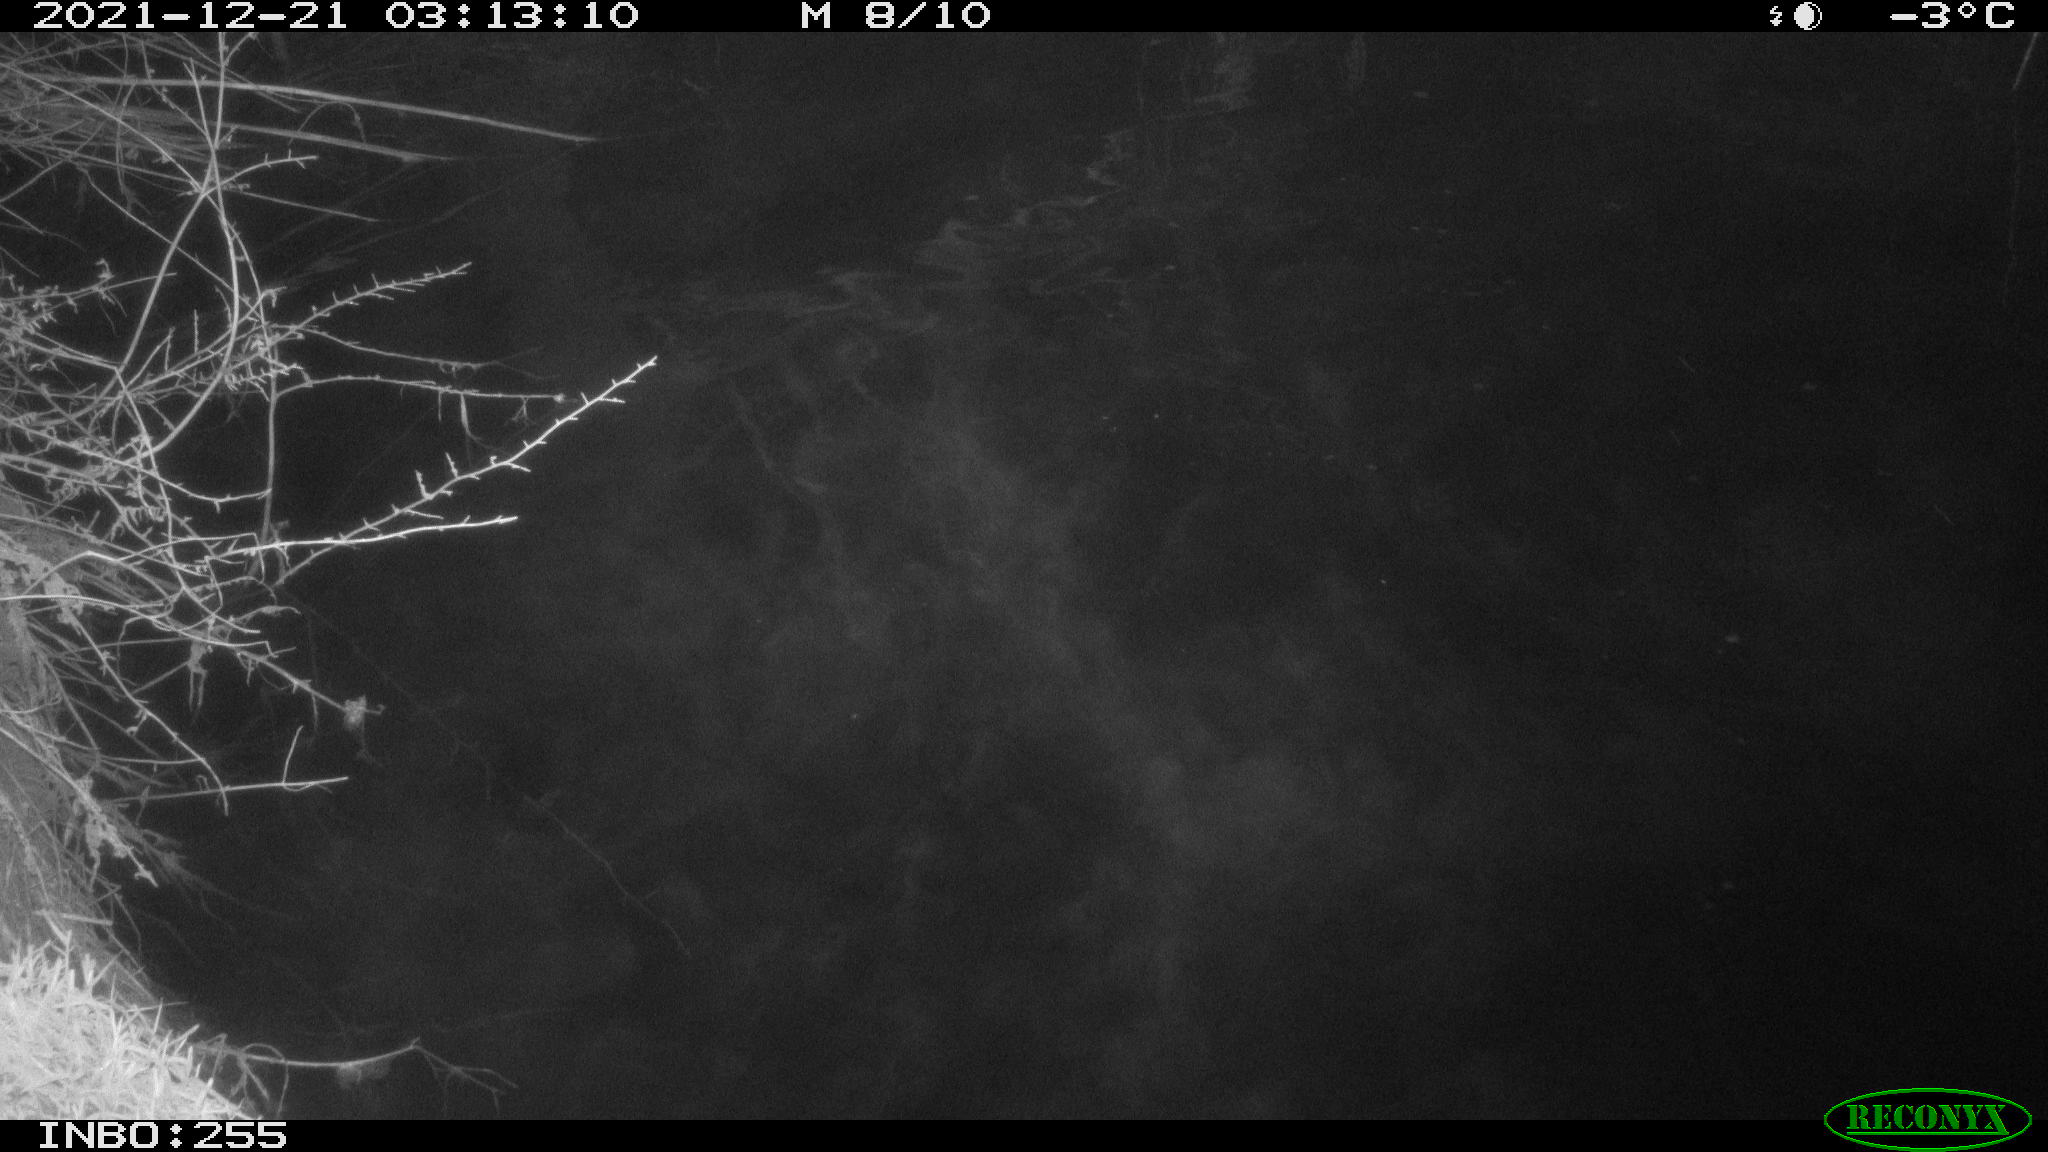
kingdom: Animalia
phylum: Chordata
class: Aves
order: Anseriformes
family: Anatidae
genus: Anas
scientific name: Anas platyrhynchos
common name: Mallard
